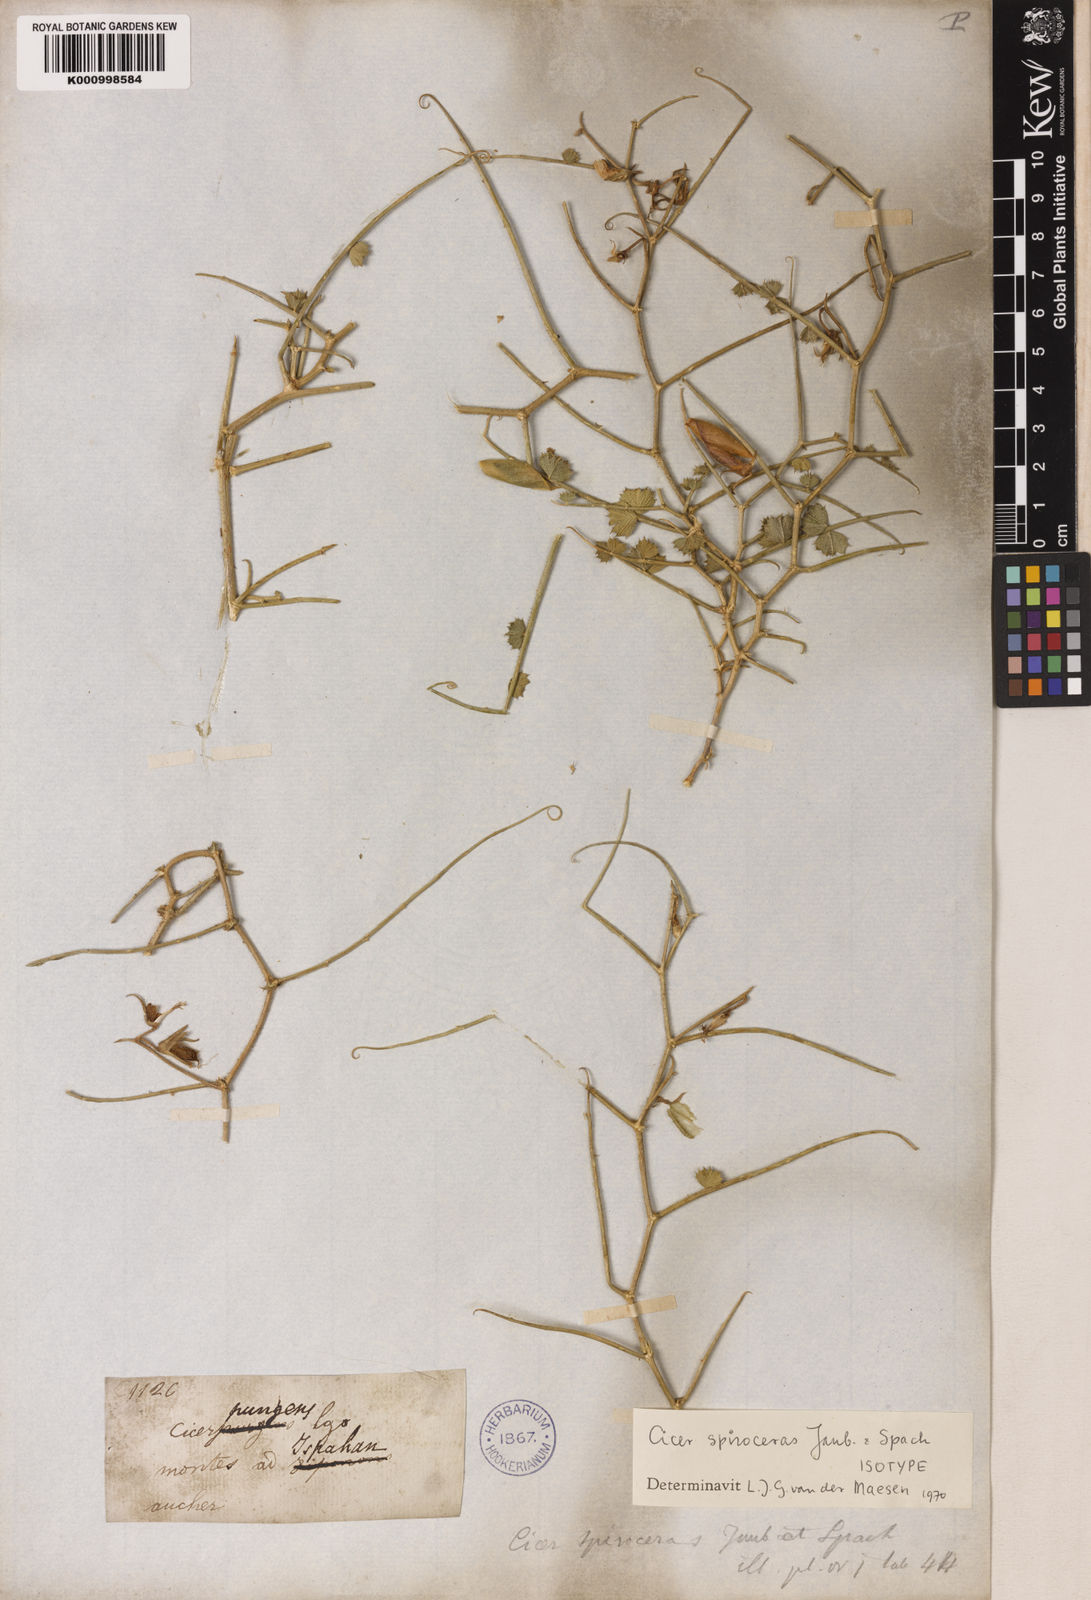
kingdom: Plantae
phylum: Tracheophyta
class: Magnoliopsida
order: Fabales
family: Fabaceae
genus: Cicer
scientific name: Cicer spiroceras
